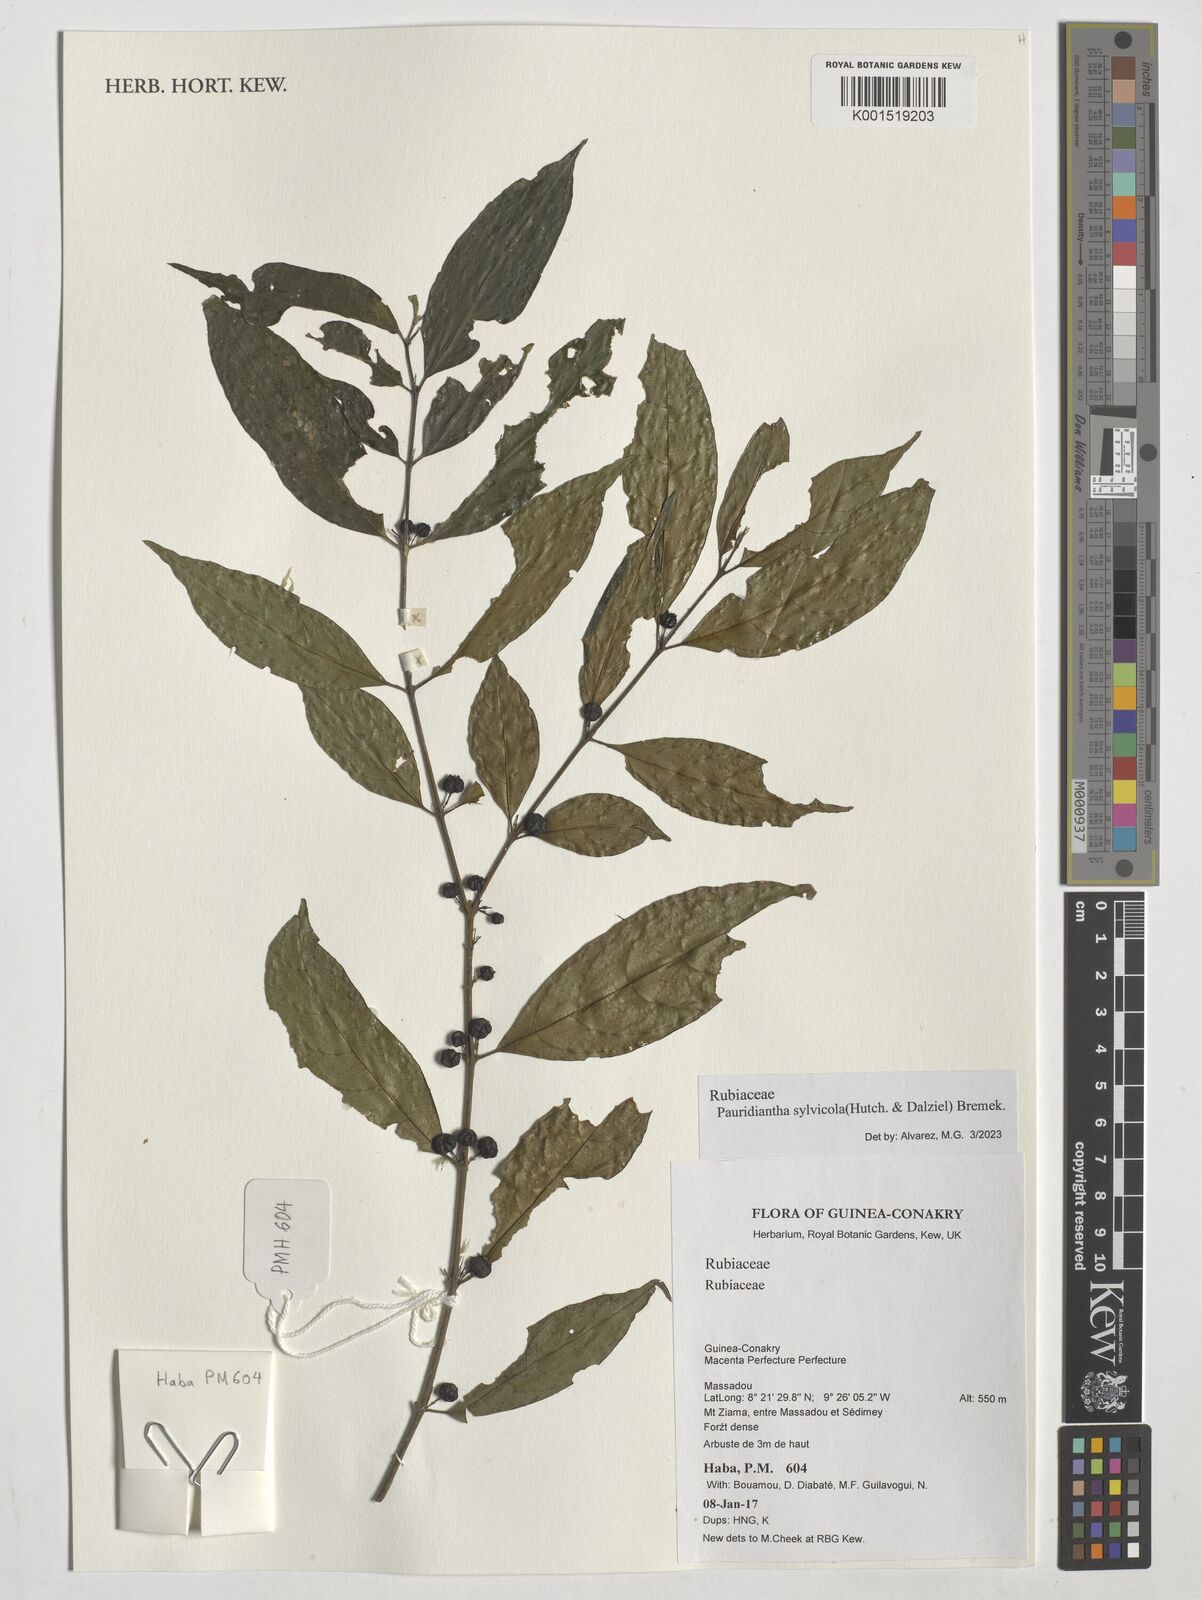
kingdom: Plantae
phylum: Tracheophyta
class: Magnoliopsida
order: Gentianales
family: Rubiaceae
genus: Pauridiantha
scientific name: Pauridiantha sylvicola
